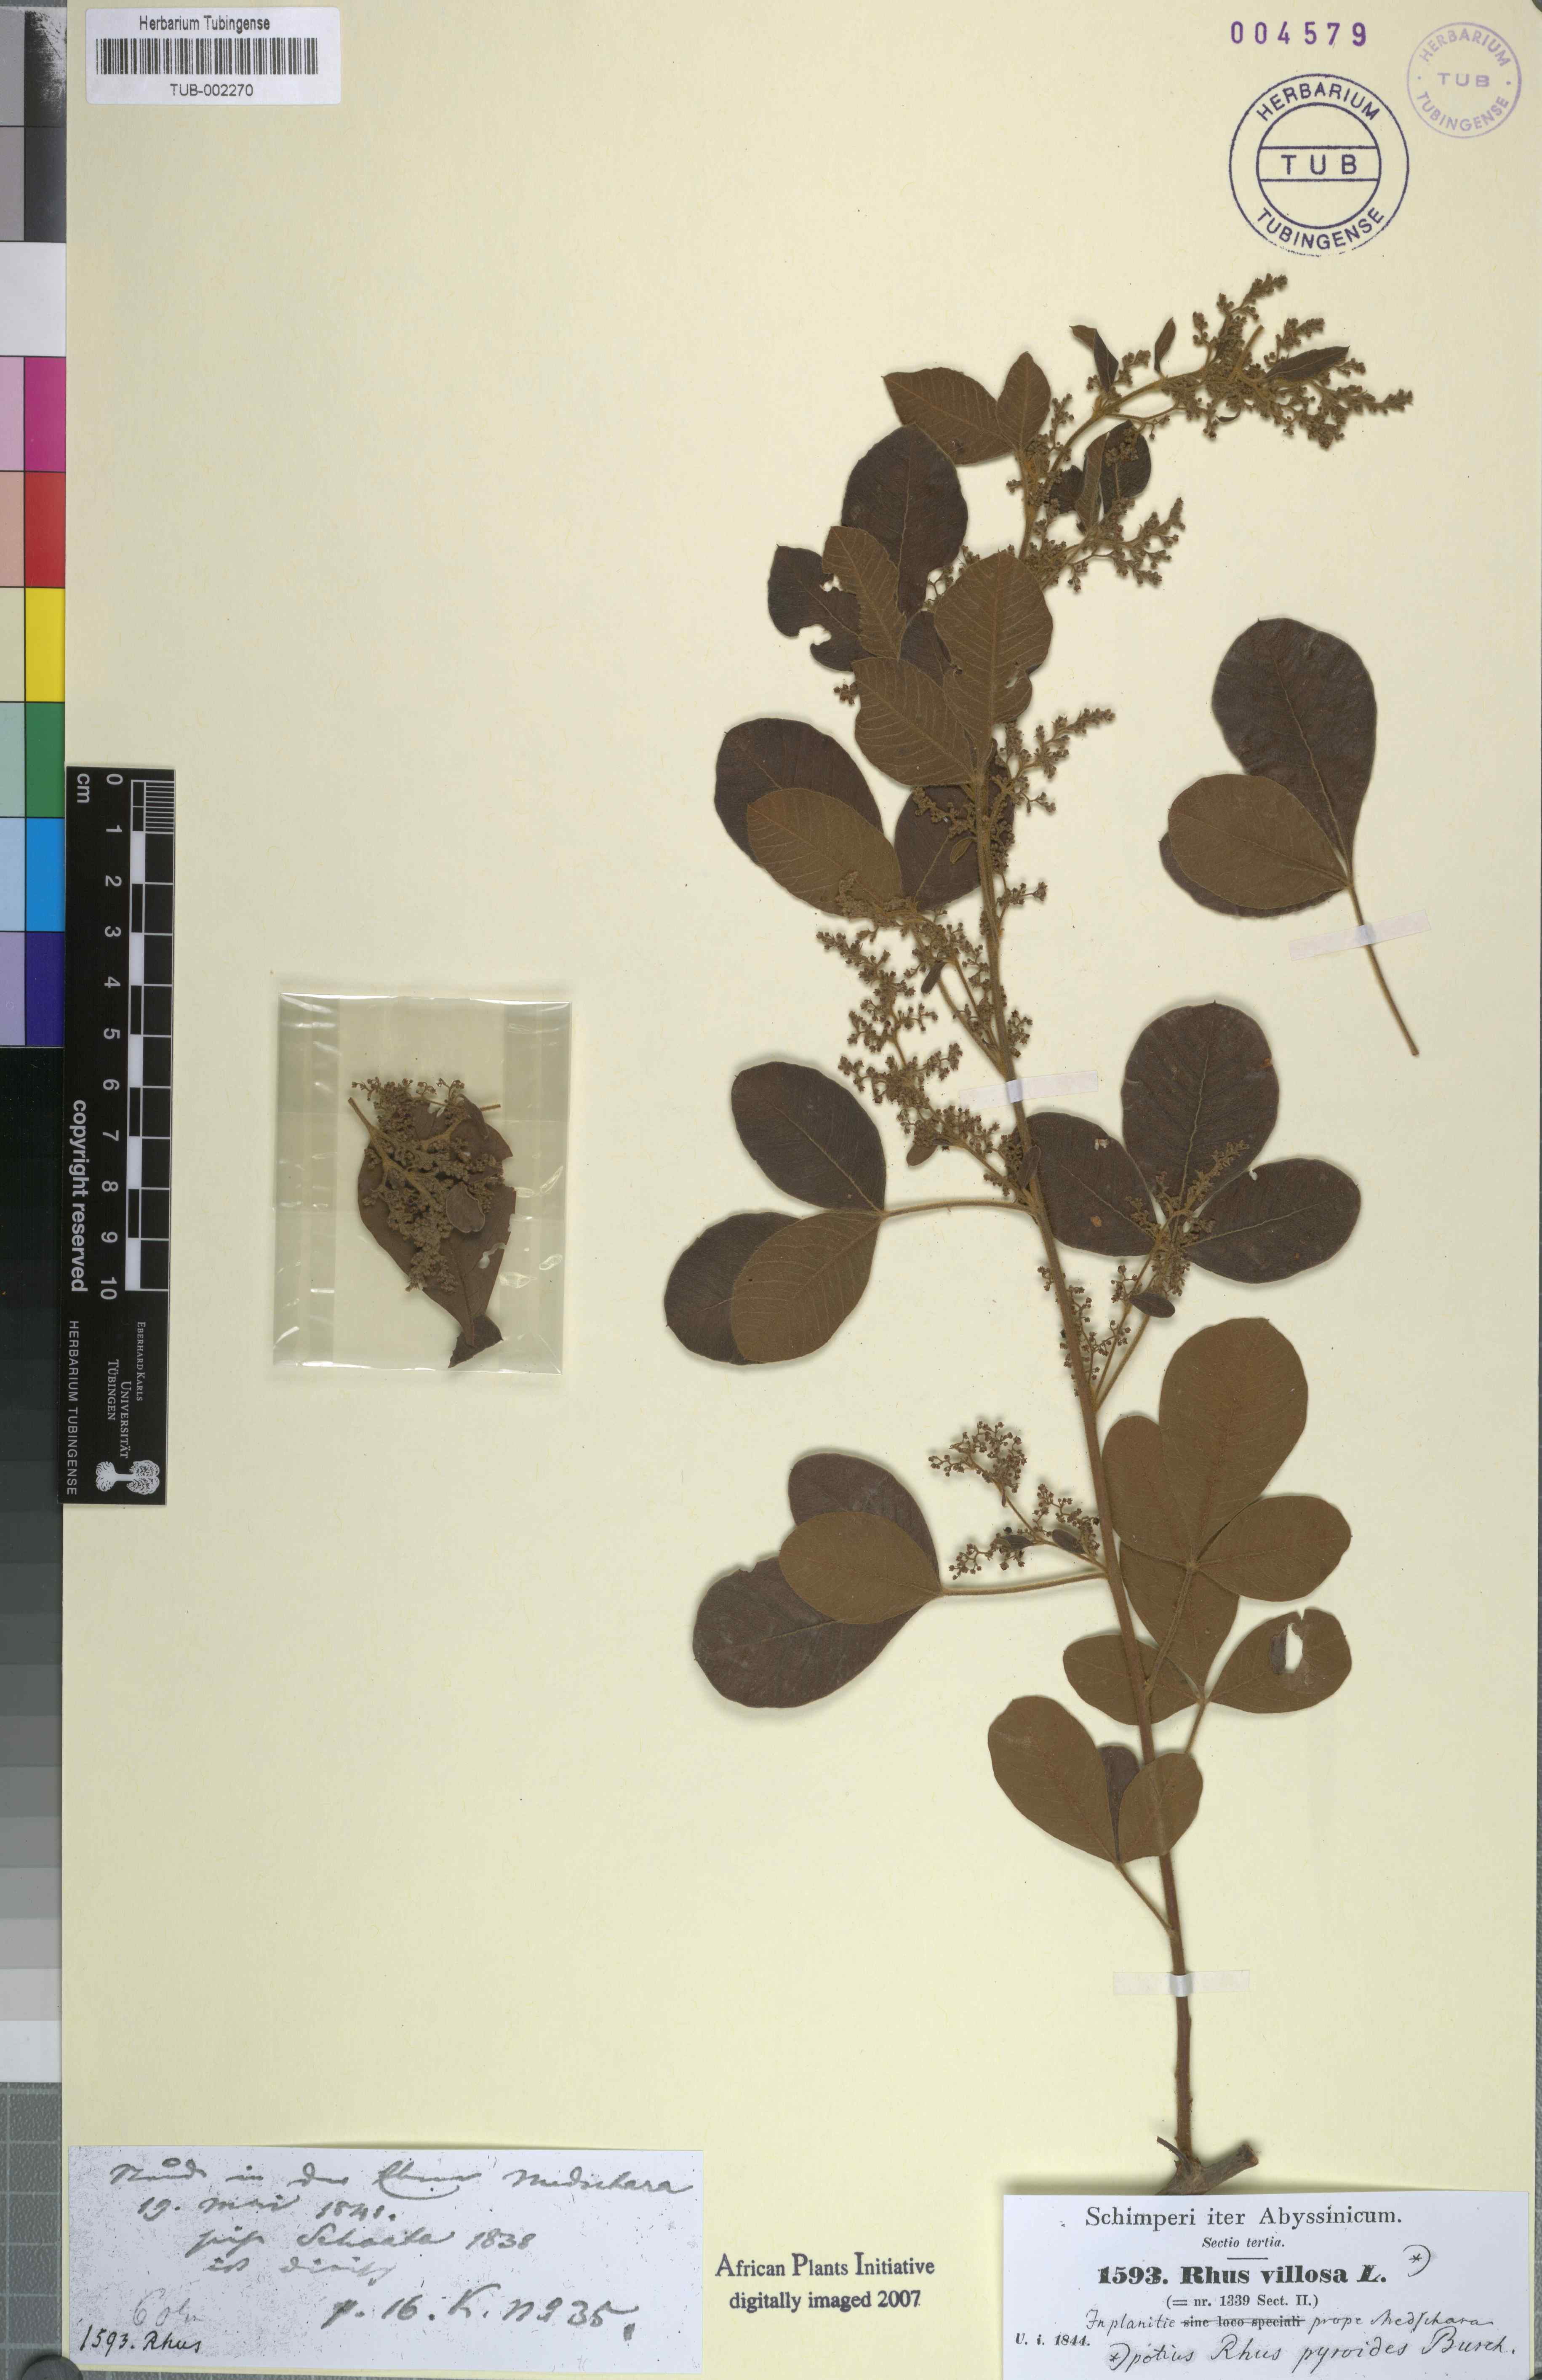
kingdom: Plantae
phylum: Tracheophyta
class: Magnoliopsida
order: Sapindales
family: Anacardiaceae
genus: Searsia
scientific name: Searsia laevigata
